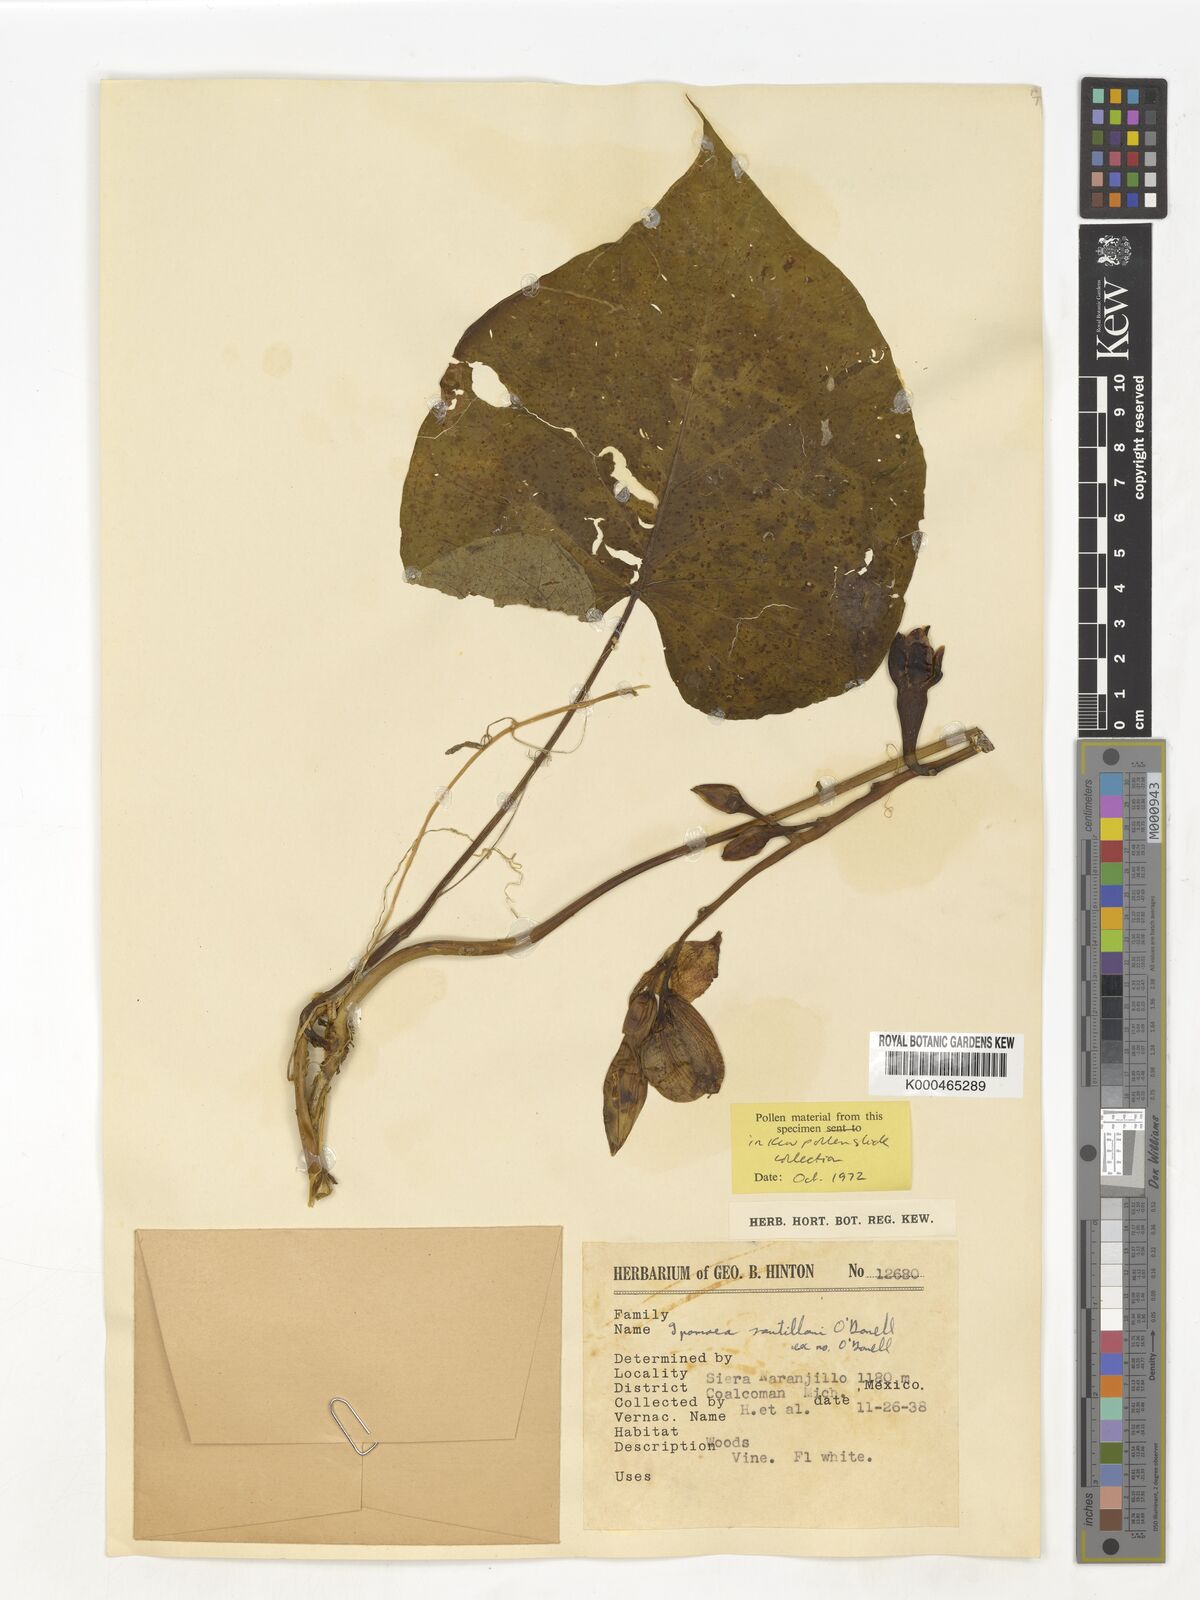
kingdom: Plantae
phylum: Tracheophyta
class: Magnoliopsida
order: Solanales
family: Convolvulaceae
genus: Ipomoea
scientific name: Ipomoea
